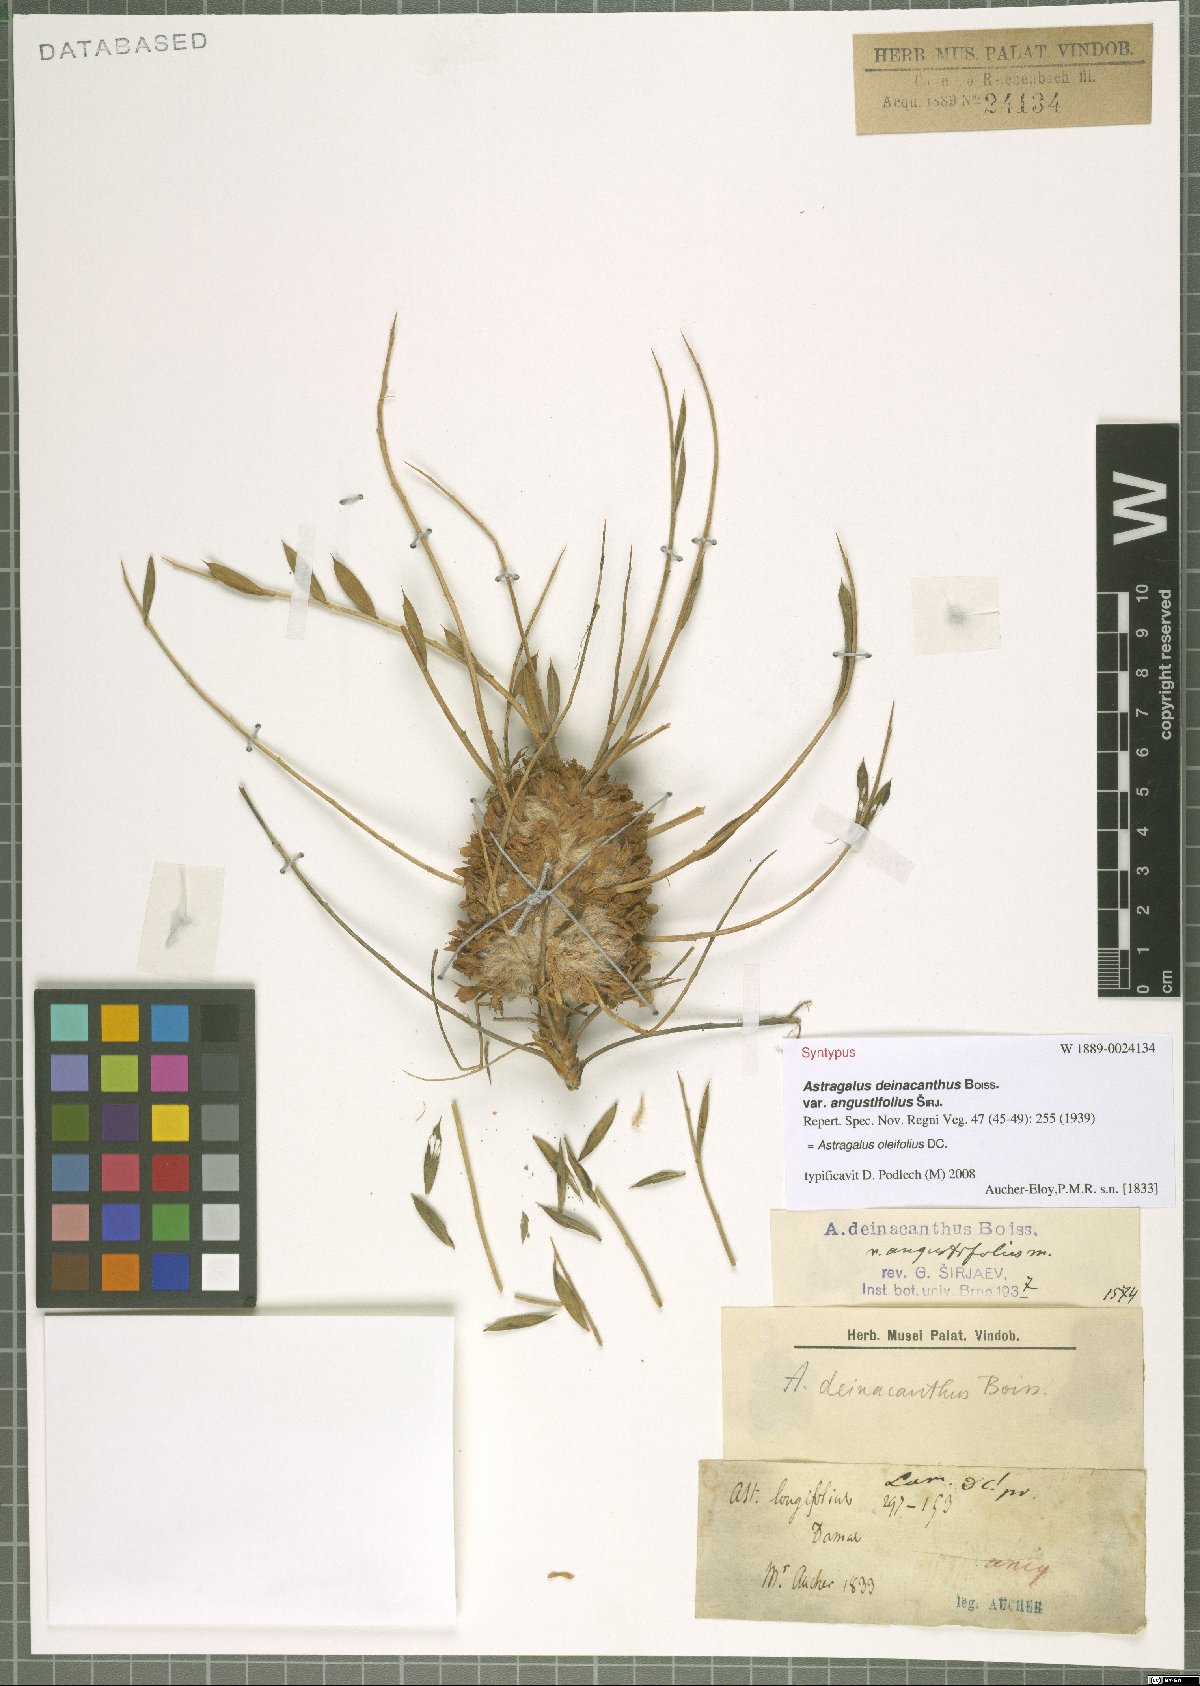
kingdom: Plantae
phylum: Tracheophyta
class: Magnoliopsida
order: Fabales
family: Fabaceae
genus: Astragalus
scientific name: Astragalus oleifolius
